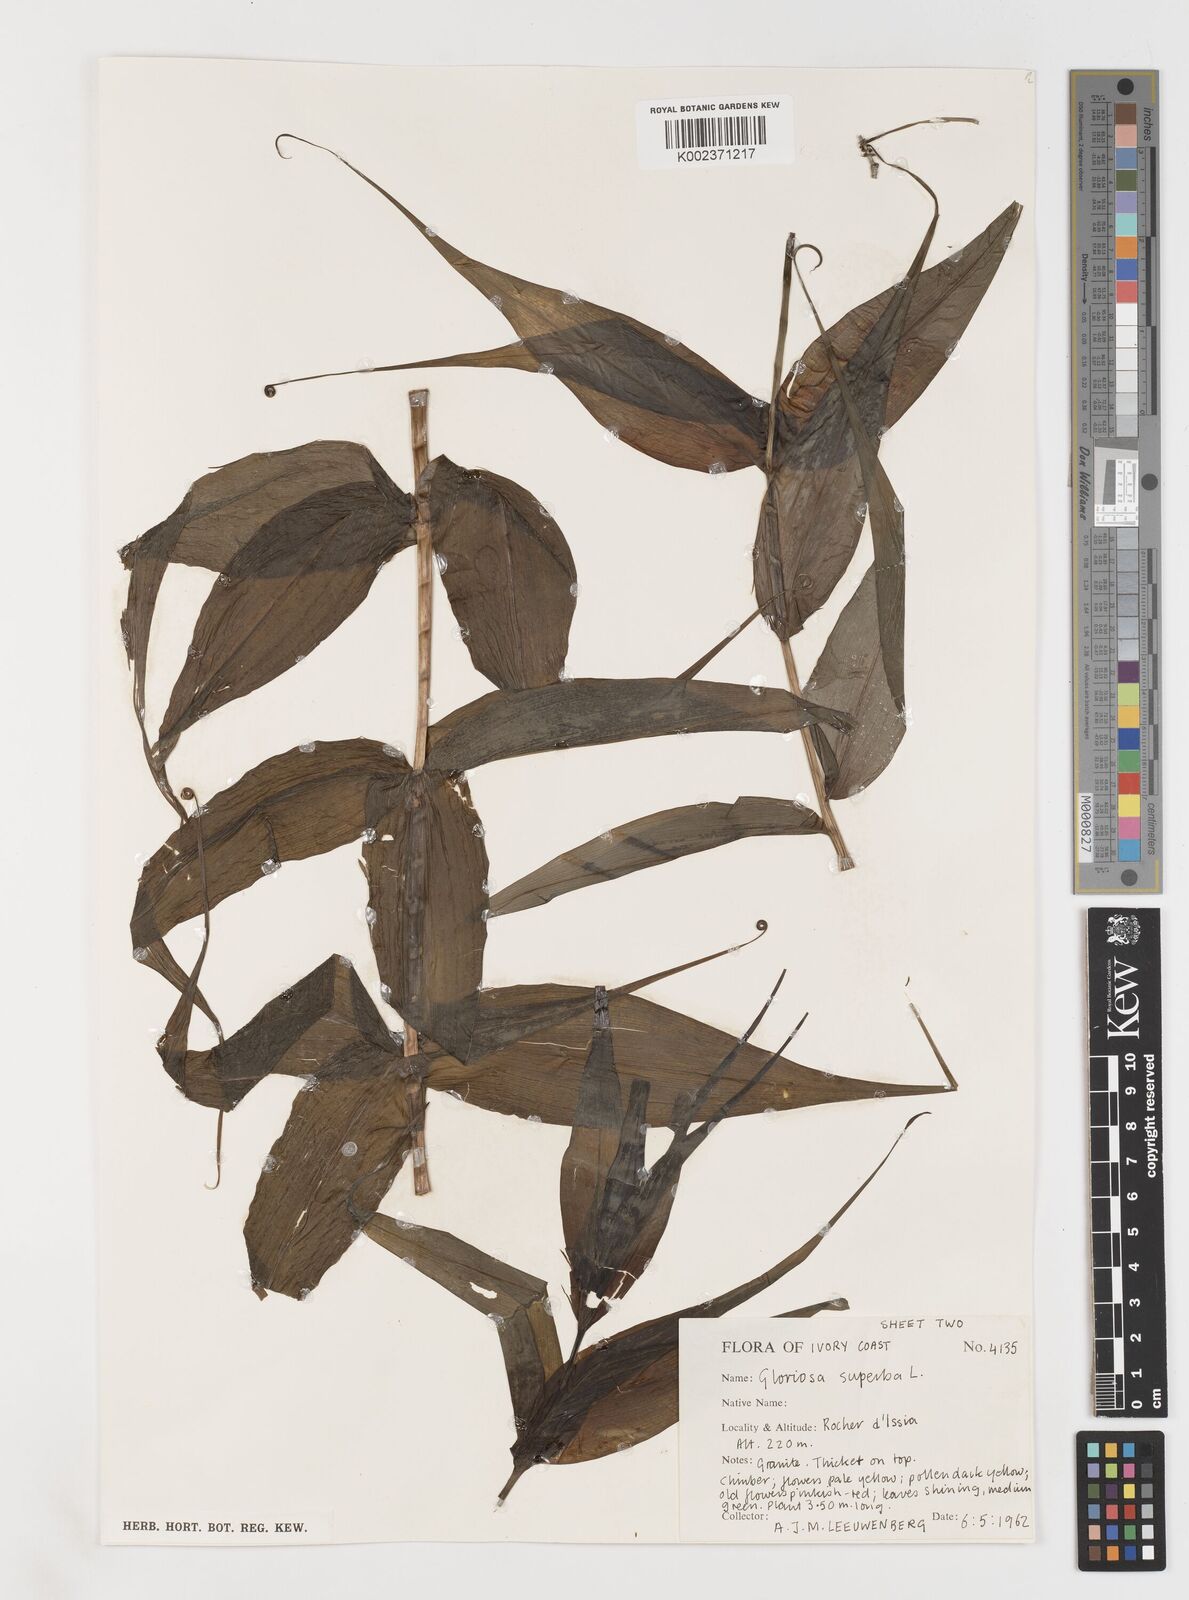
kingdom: Plantae
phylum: Tracheophyta
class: Liliopsida
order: Liliales
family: Colchicaceae
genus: Gloriosa
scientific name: Gloriosa superba
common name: Flame lily
